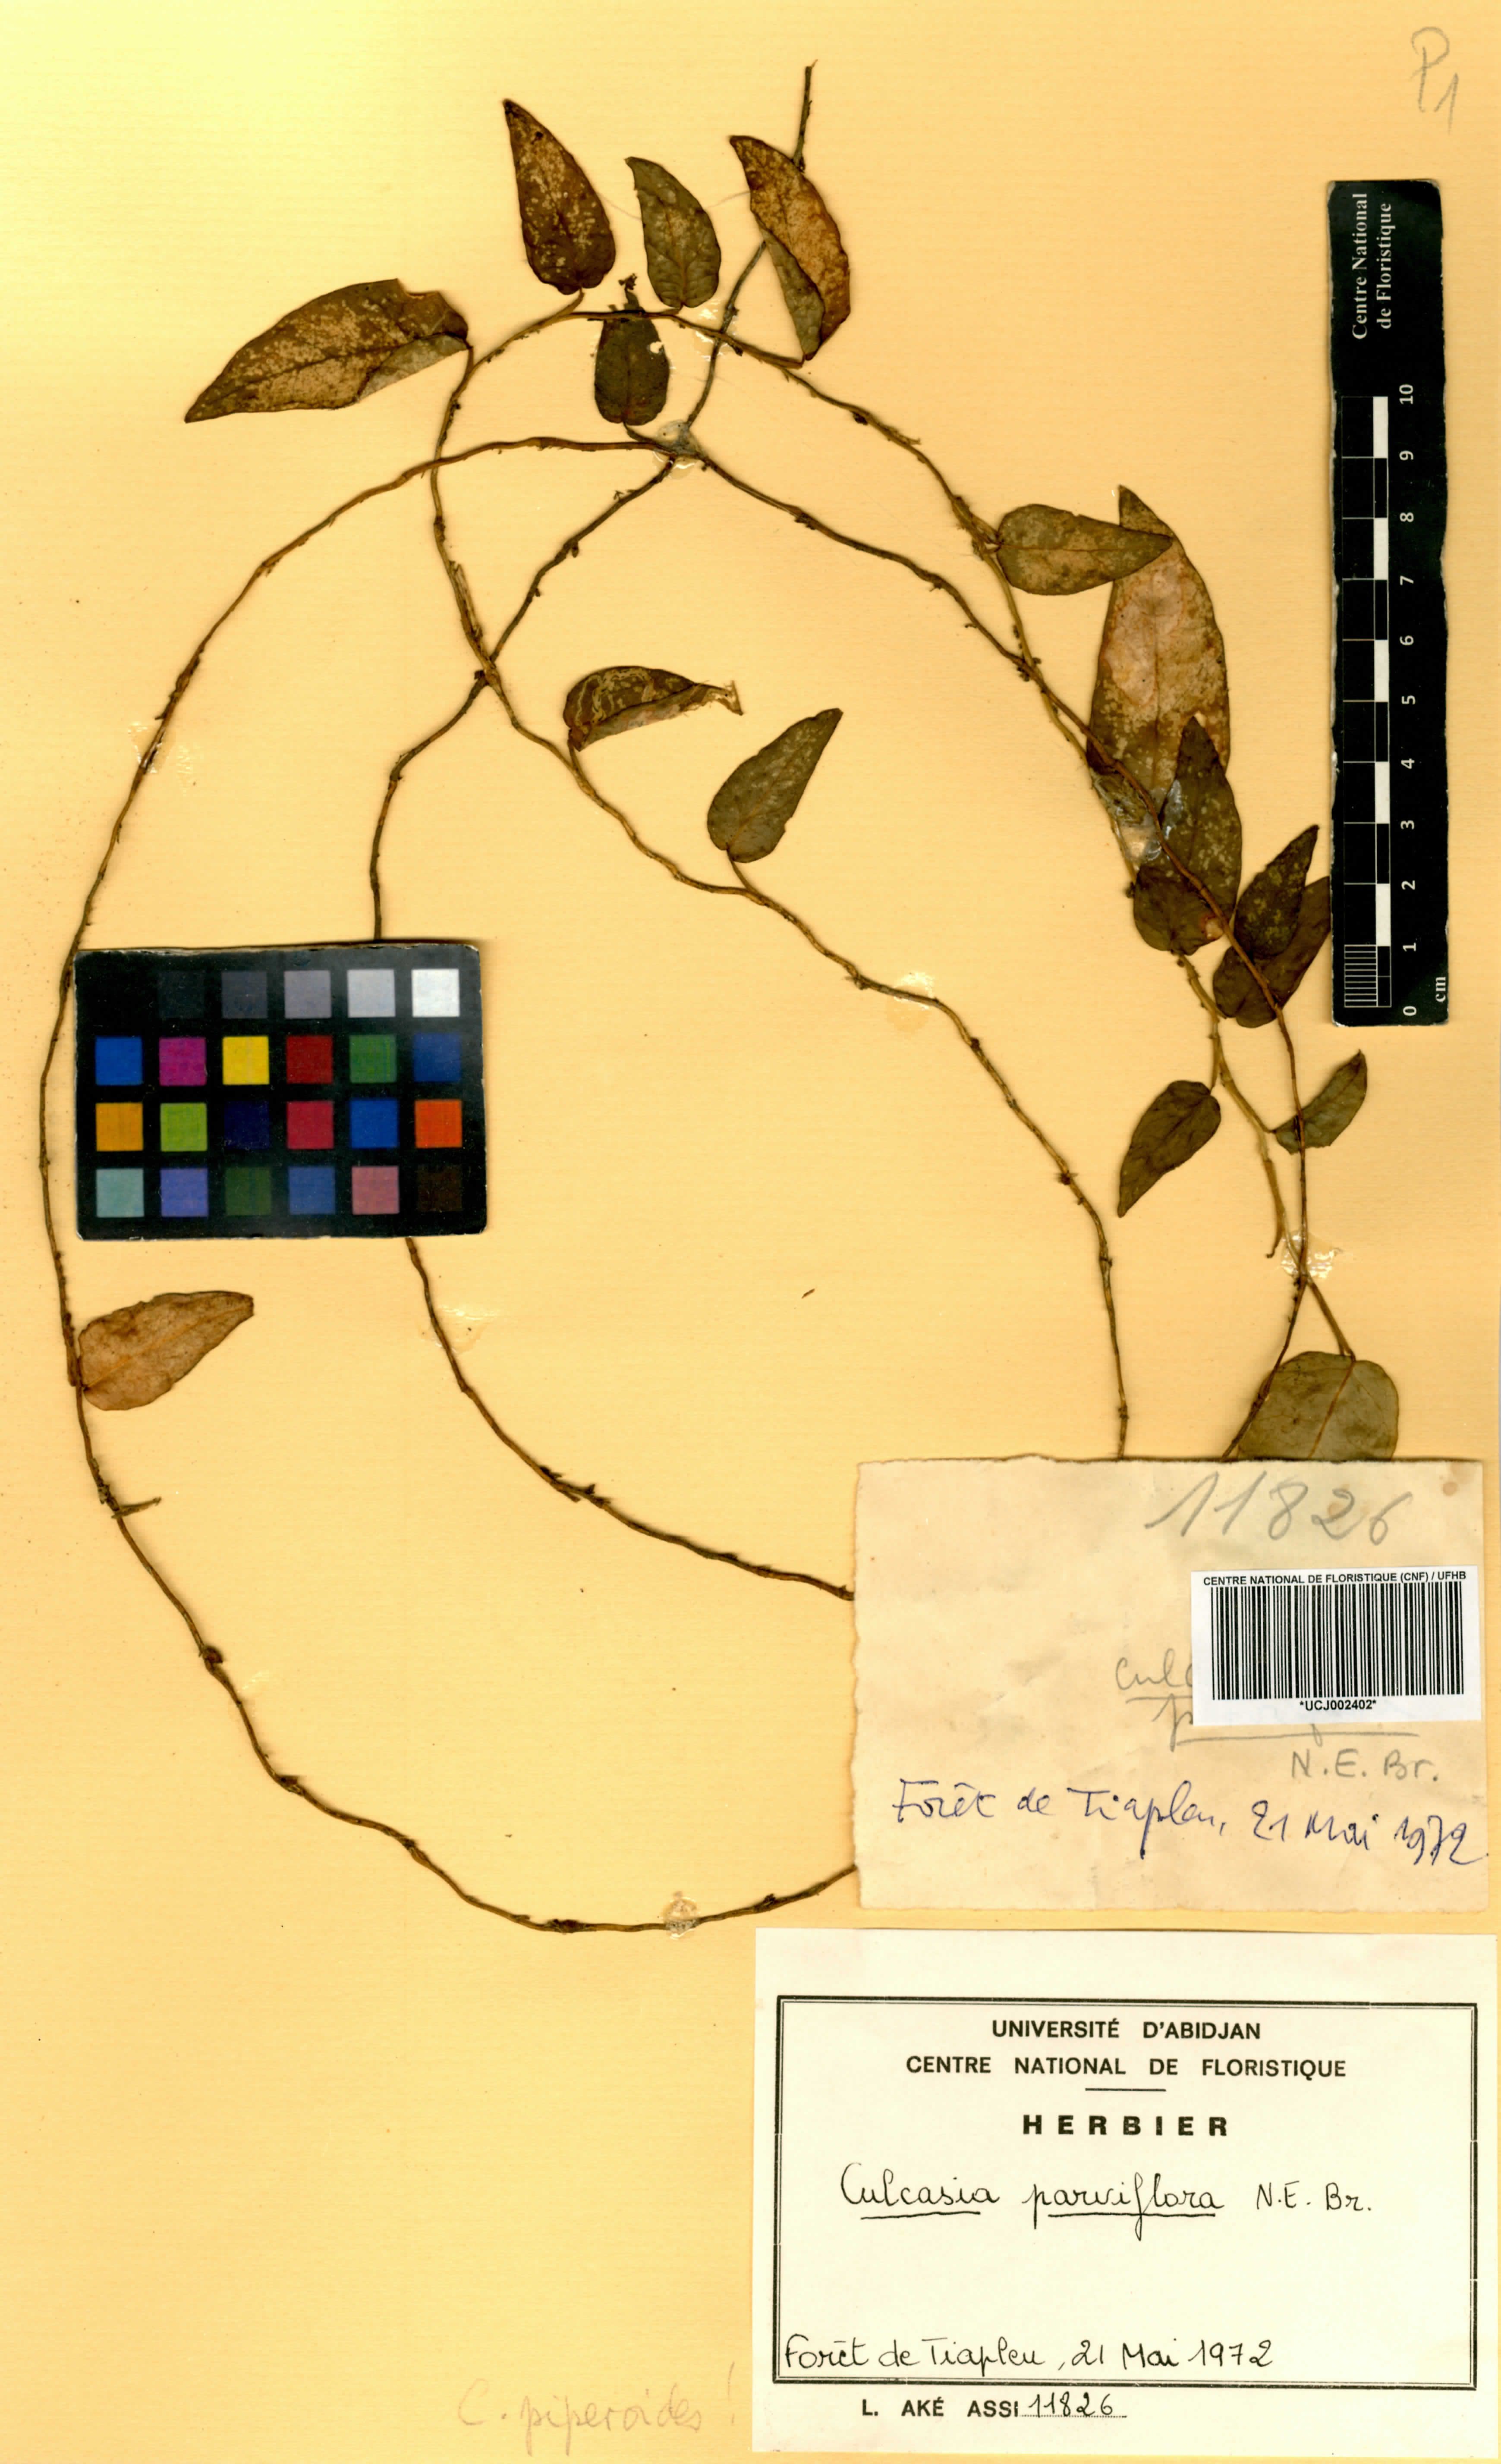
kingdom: Plantae
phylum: Tracheophyta
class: Liliopsida
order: Alismatales
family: Araceae
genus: Culcasia
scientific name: Culcasia parviflora
